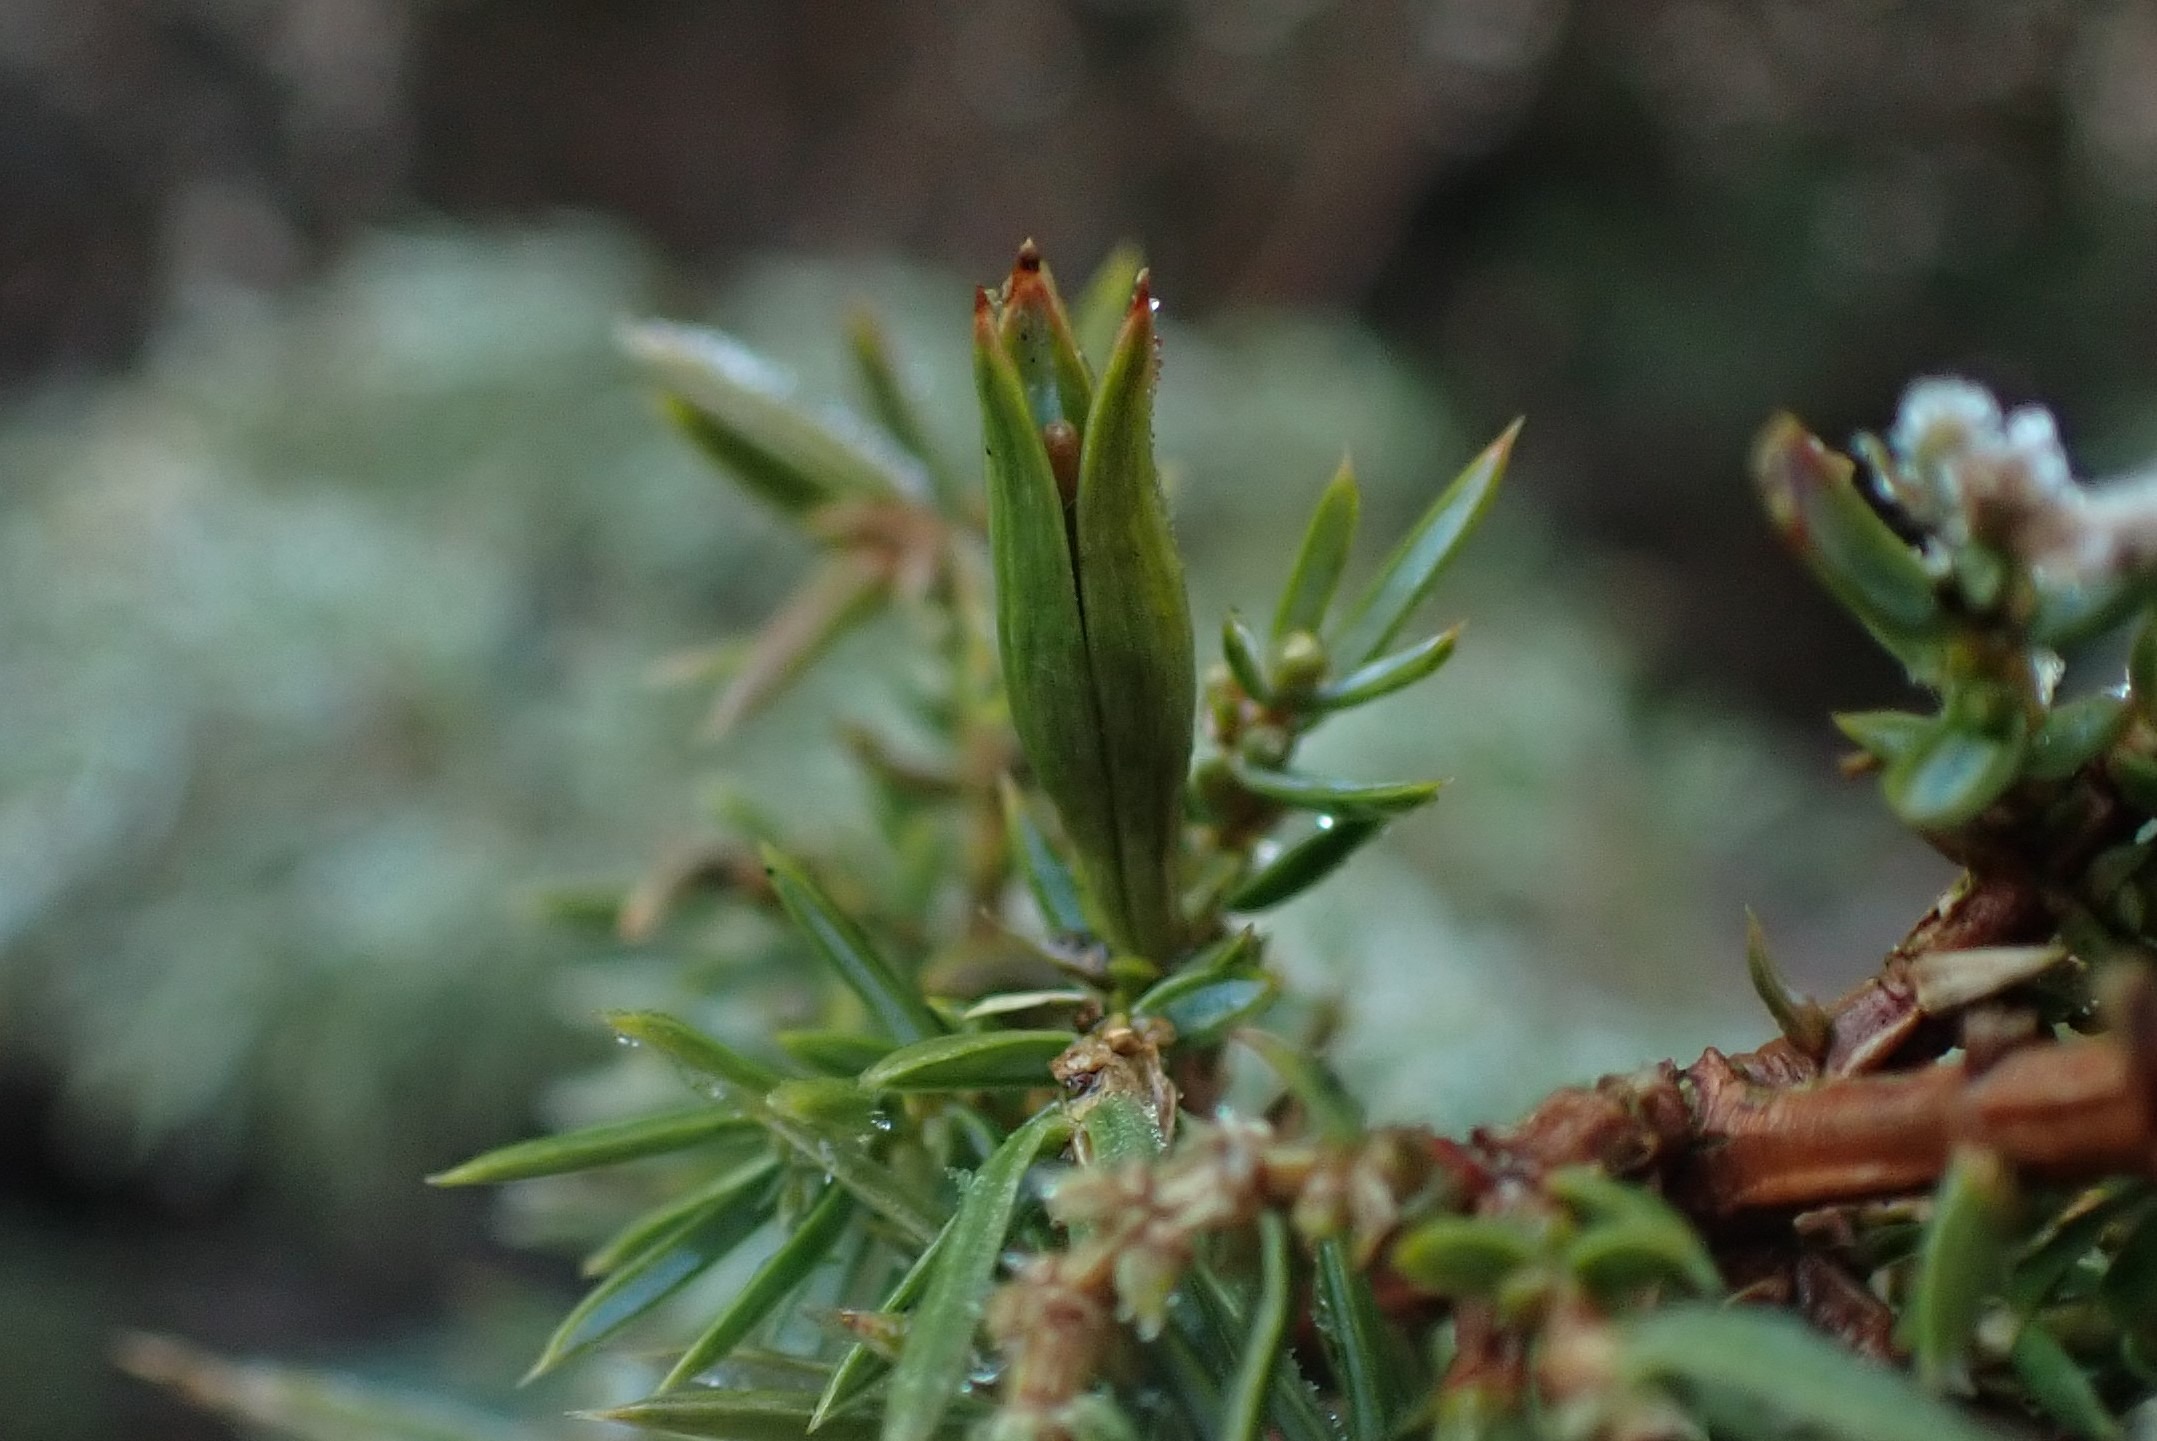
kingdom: Animalia
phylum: Arthropoda
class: Insecta
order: Diptera
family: Cecidomyiidae
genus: Oligotrophus
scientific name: Oligotrophus juniperinus
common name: Kikbærgalmyg
